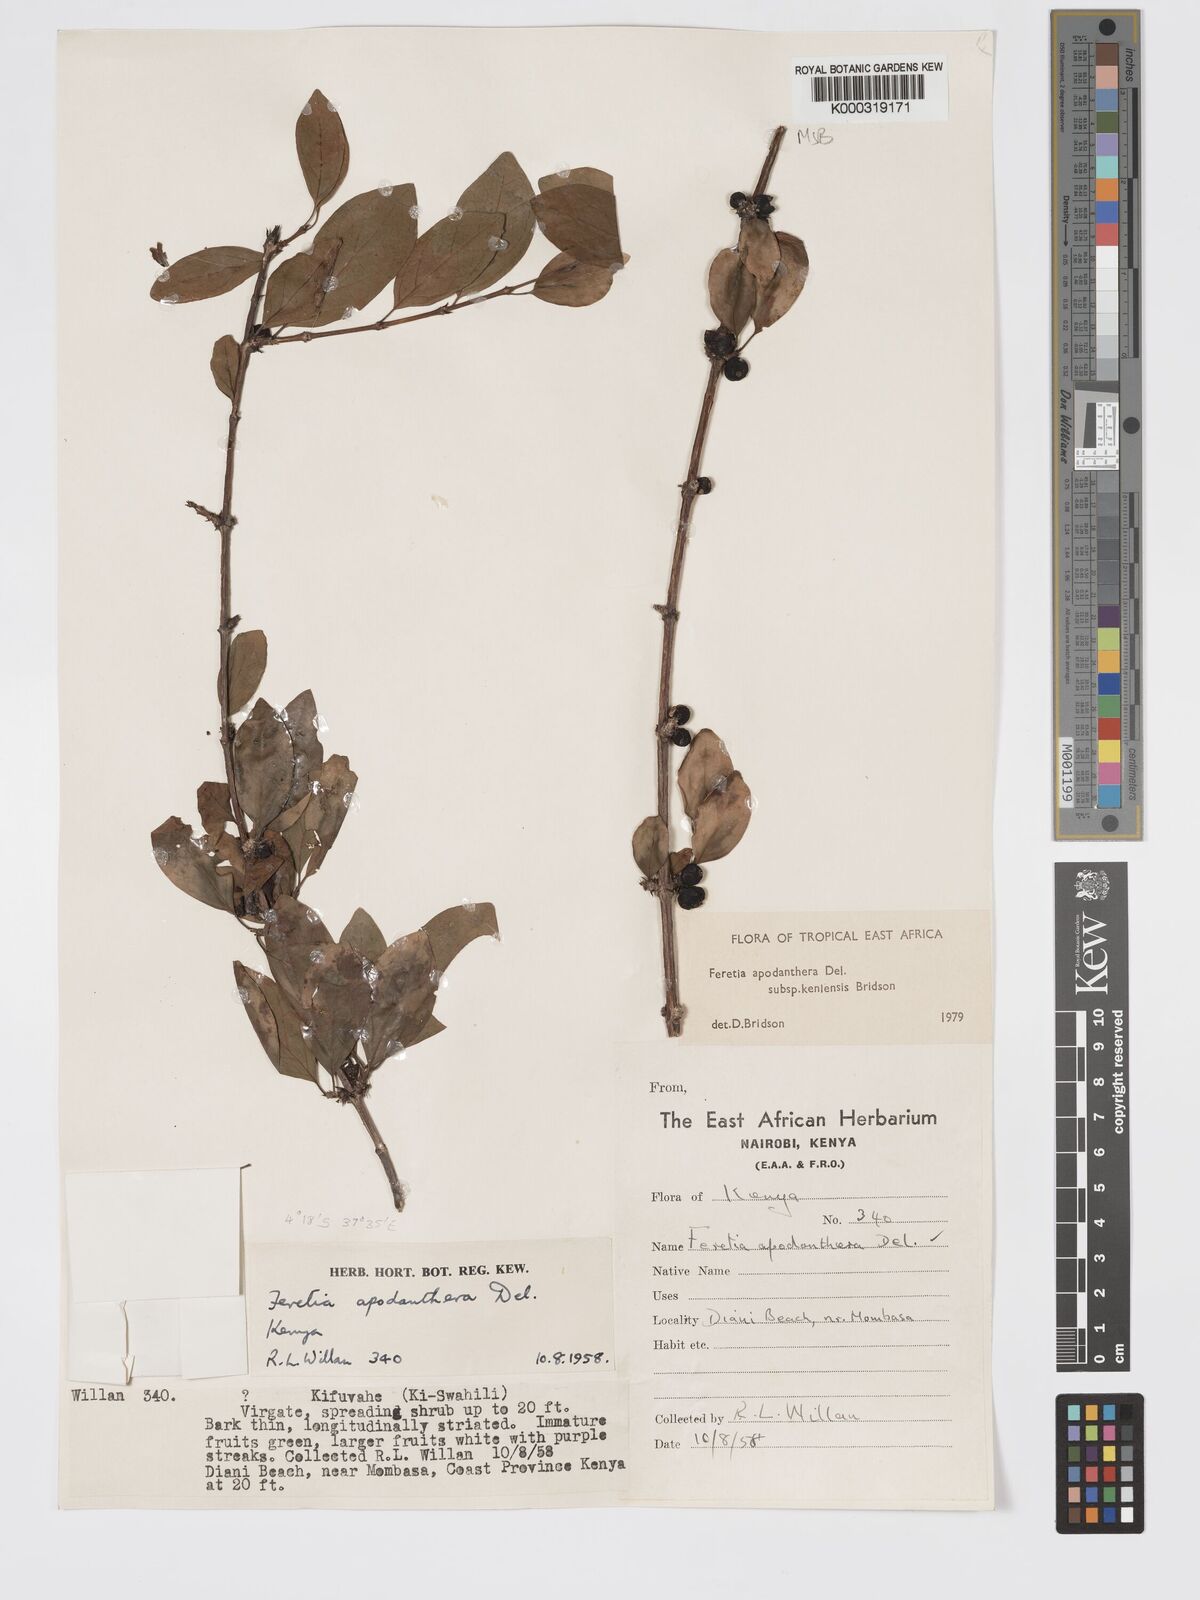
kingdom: Plantae
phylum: Tracheophyta
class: Magnoliopsida
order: Gentianales
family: Rubiaceae
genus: Feretia
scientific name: Feretia apodanthera
